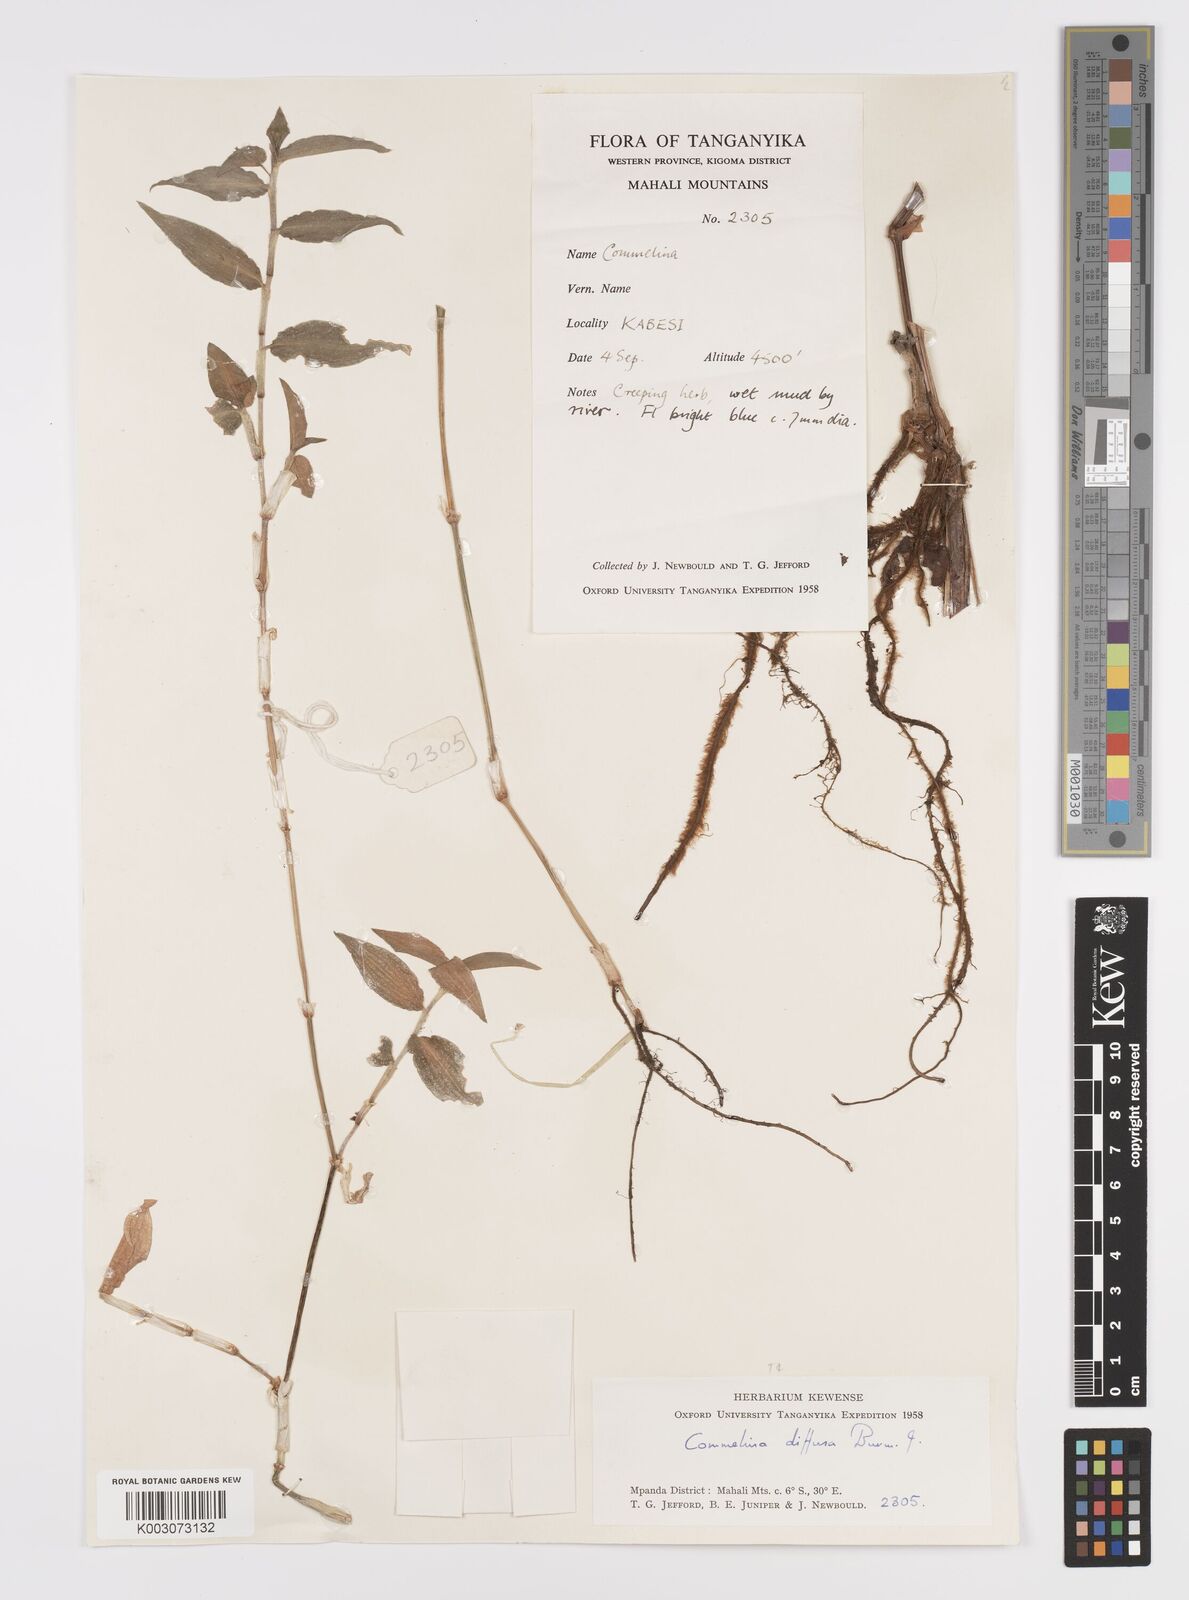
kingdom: Plantae
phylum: Tracheophyta
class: Liliopsida
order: Commelinales
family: Commelinaceae
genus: Commelina
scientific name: Commelina diffusa
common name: Climbing dayflower
